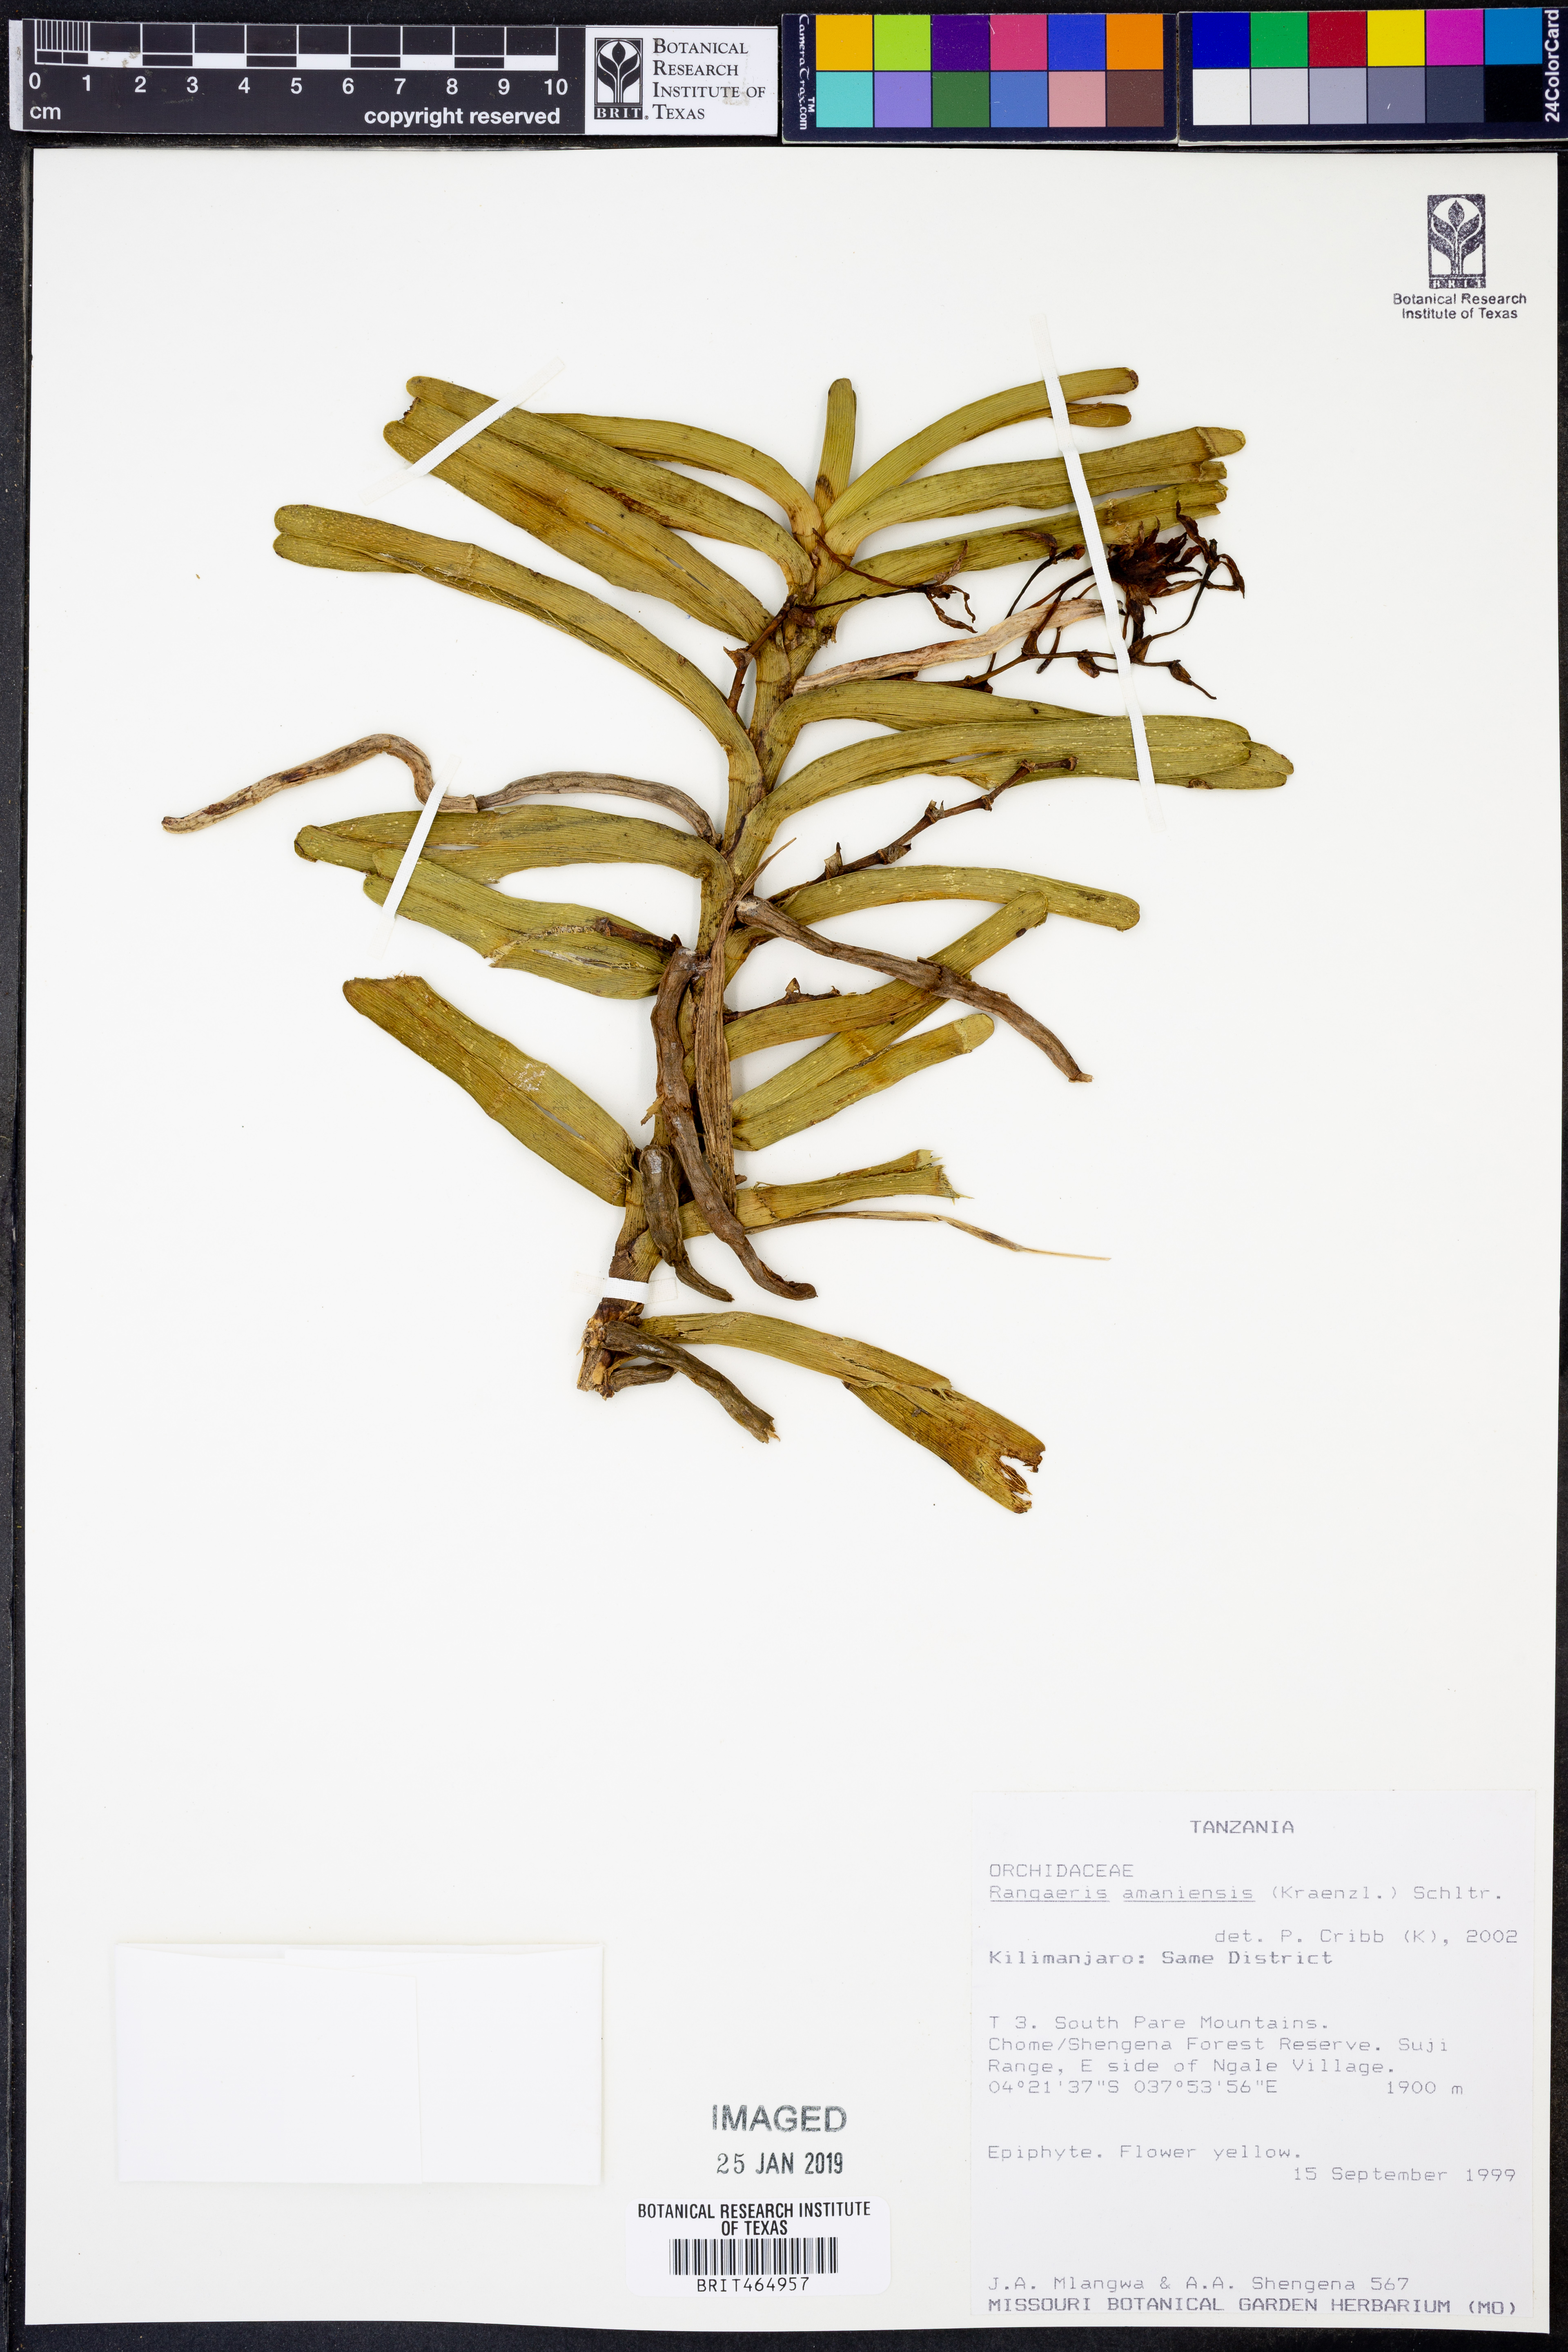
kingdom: Plantae
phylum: Tracheophyta
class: Liliopsida
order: Asparagales
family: Orchidaceae
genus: Ypsilopus
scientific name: Ypsilopus amaniensis
